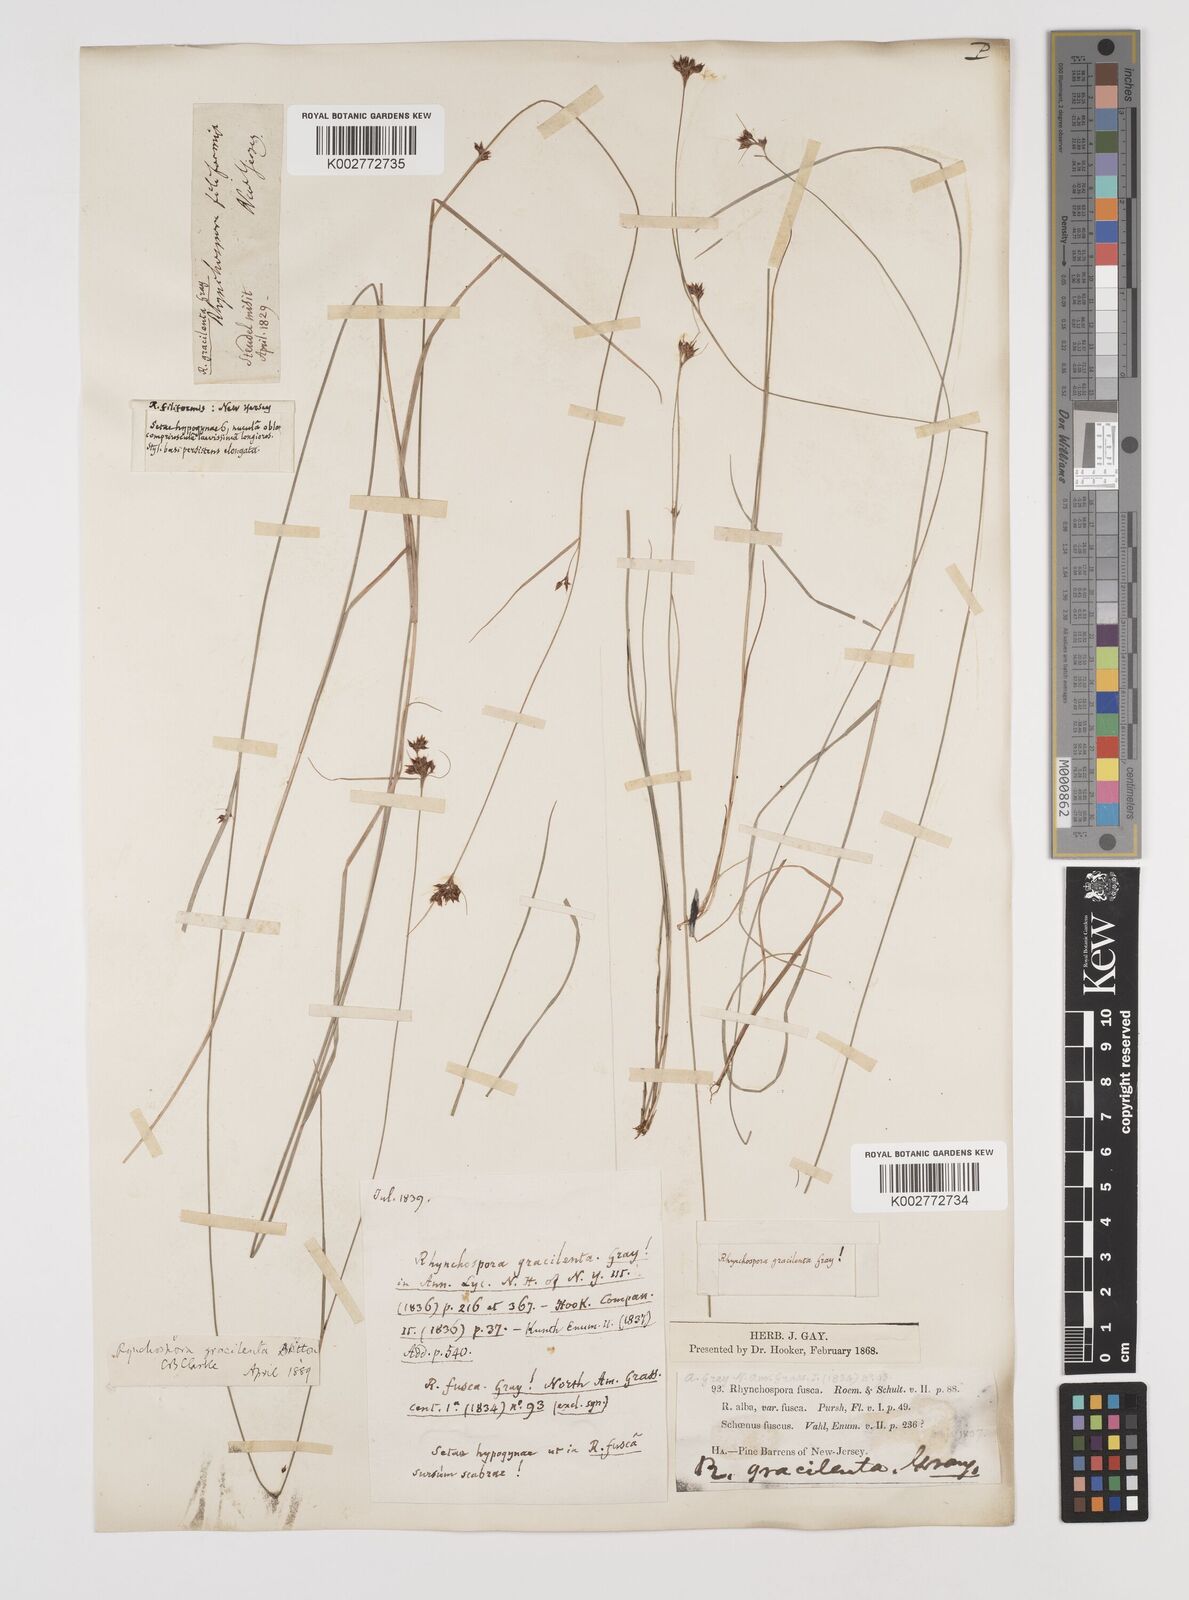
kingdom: Plantae
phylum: Tracheophyta
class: Liliopsida
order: Poales
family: Cyperaceae
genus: Rhynchospora
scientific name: Rhynchospora gracilenta
